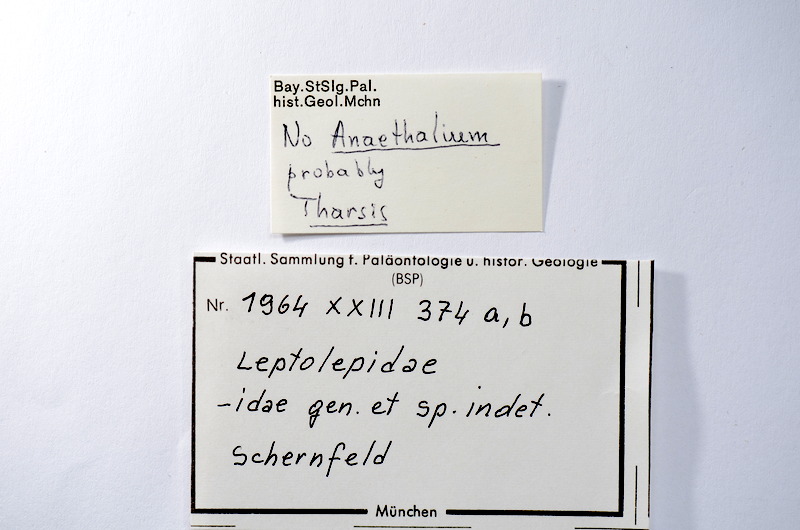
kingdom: Animalia
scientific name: Animalia
